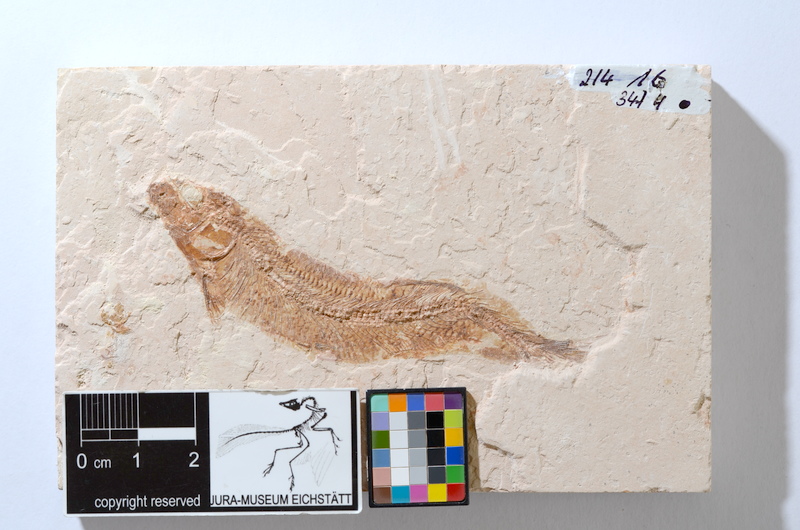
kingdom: Animalia
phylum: Chordata
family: Allothrissopidae
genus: Allothrissops
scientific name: Allothrissops mesogaster
